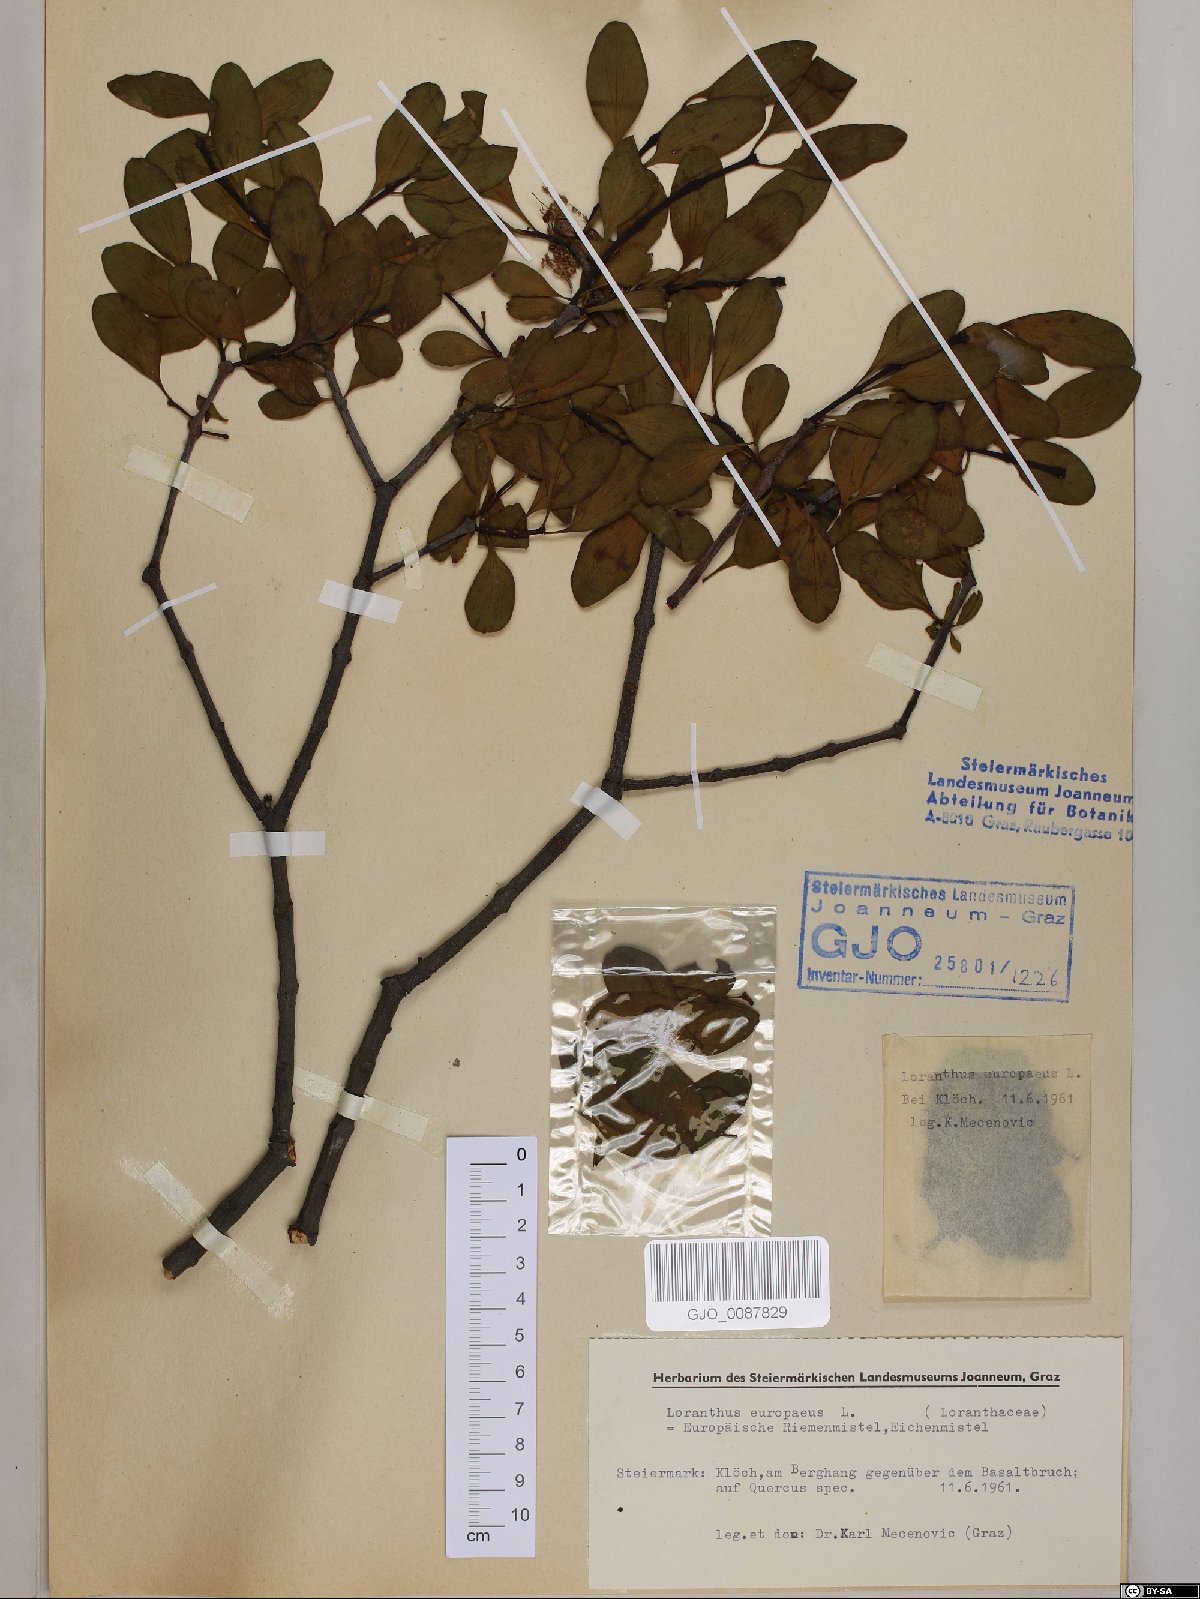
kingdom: Plantae
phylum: Tracheophyta
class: Magnoliopsida
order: Santalales
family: Loranthaceae
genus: Loranthus
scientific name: Loranthus europaeus
